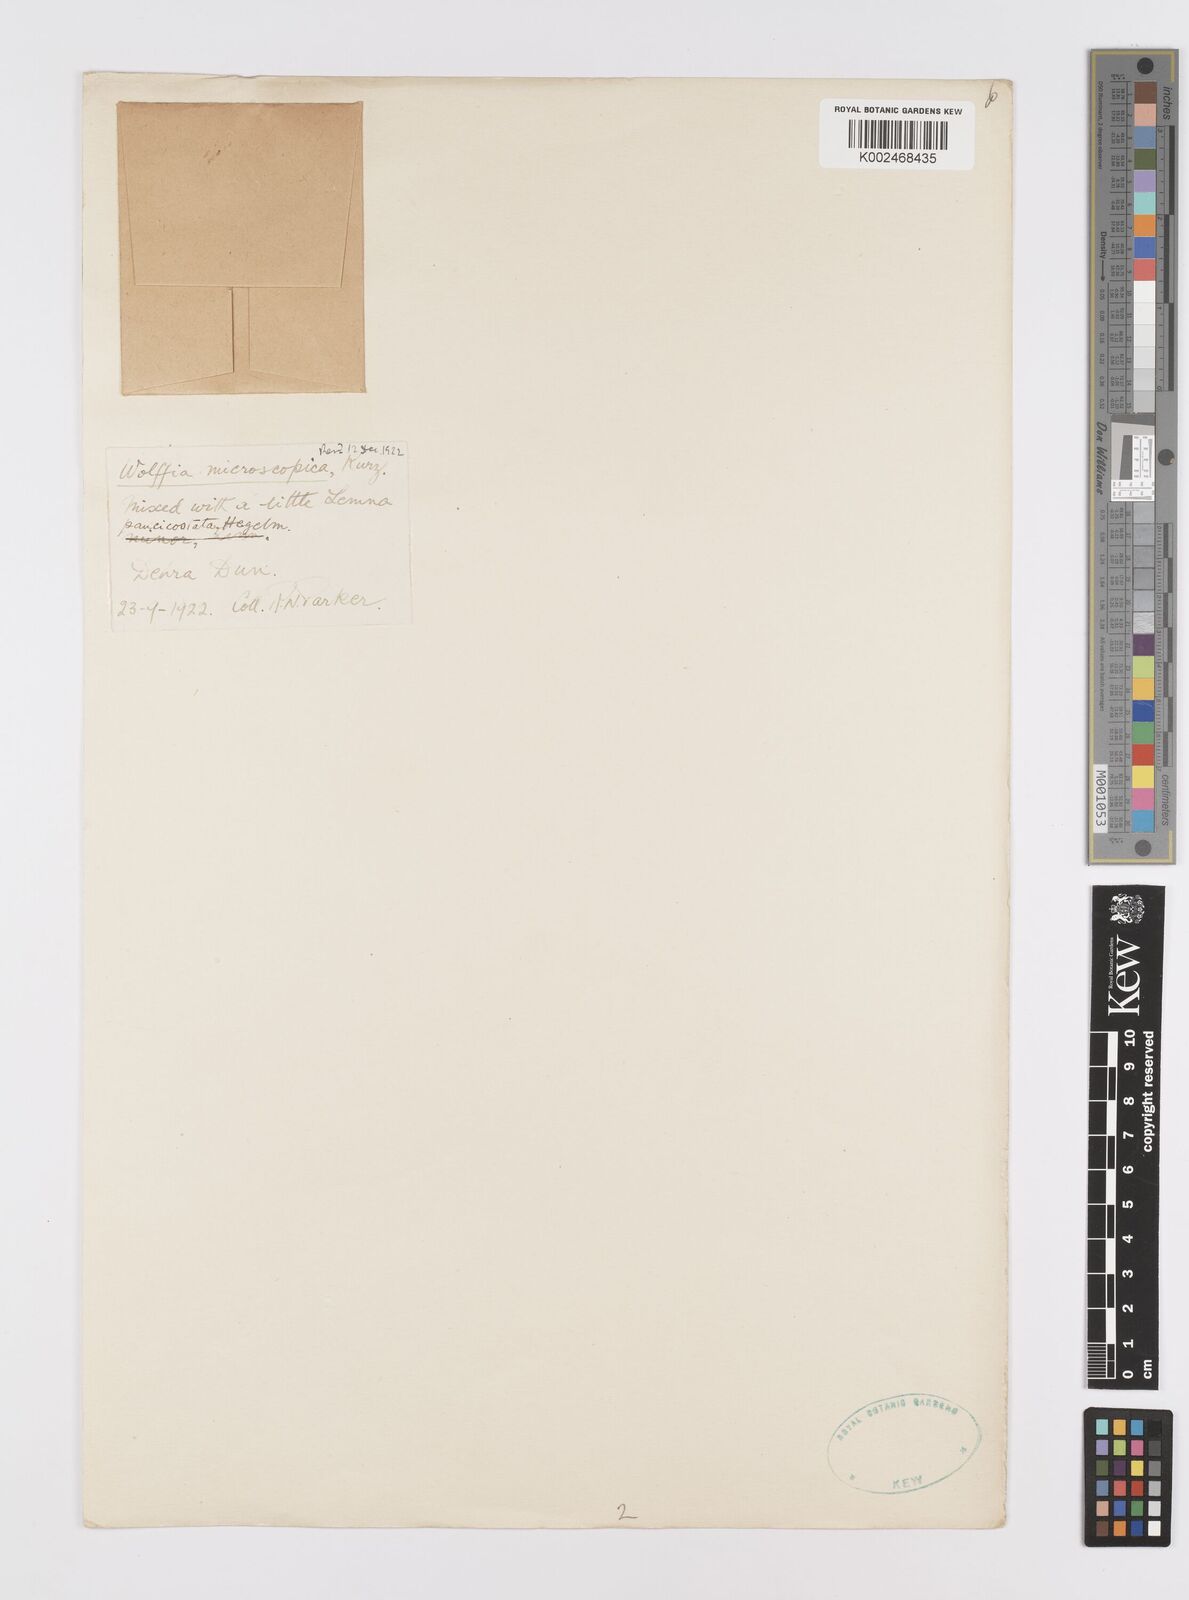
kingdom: Plantae
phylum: Tracheophyta
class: Liliopsida
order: Alismatales
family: Araceae
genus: Wolffia
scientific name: Wolffia microscopica
